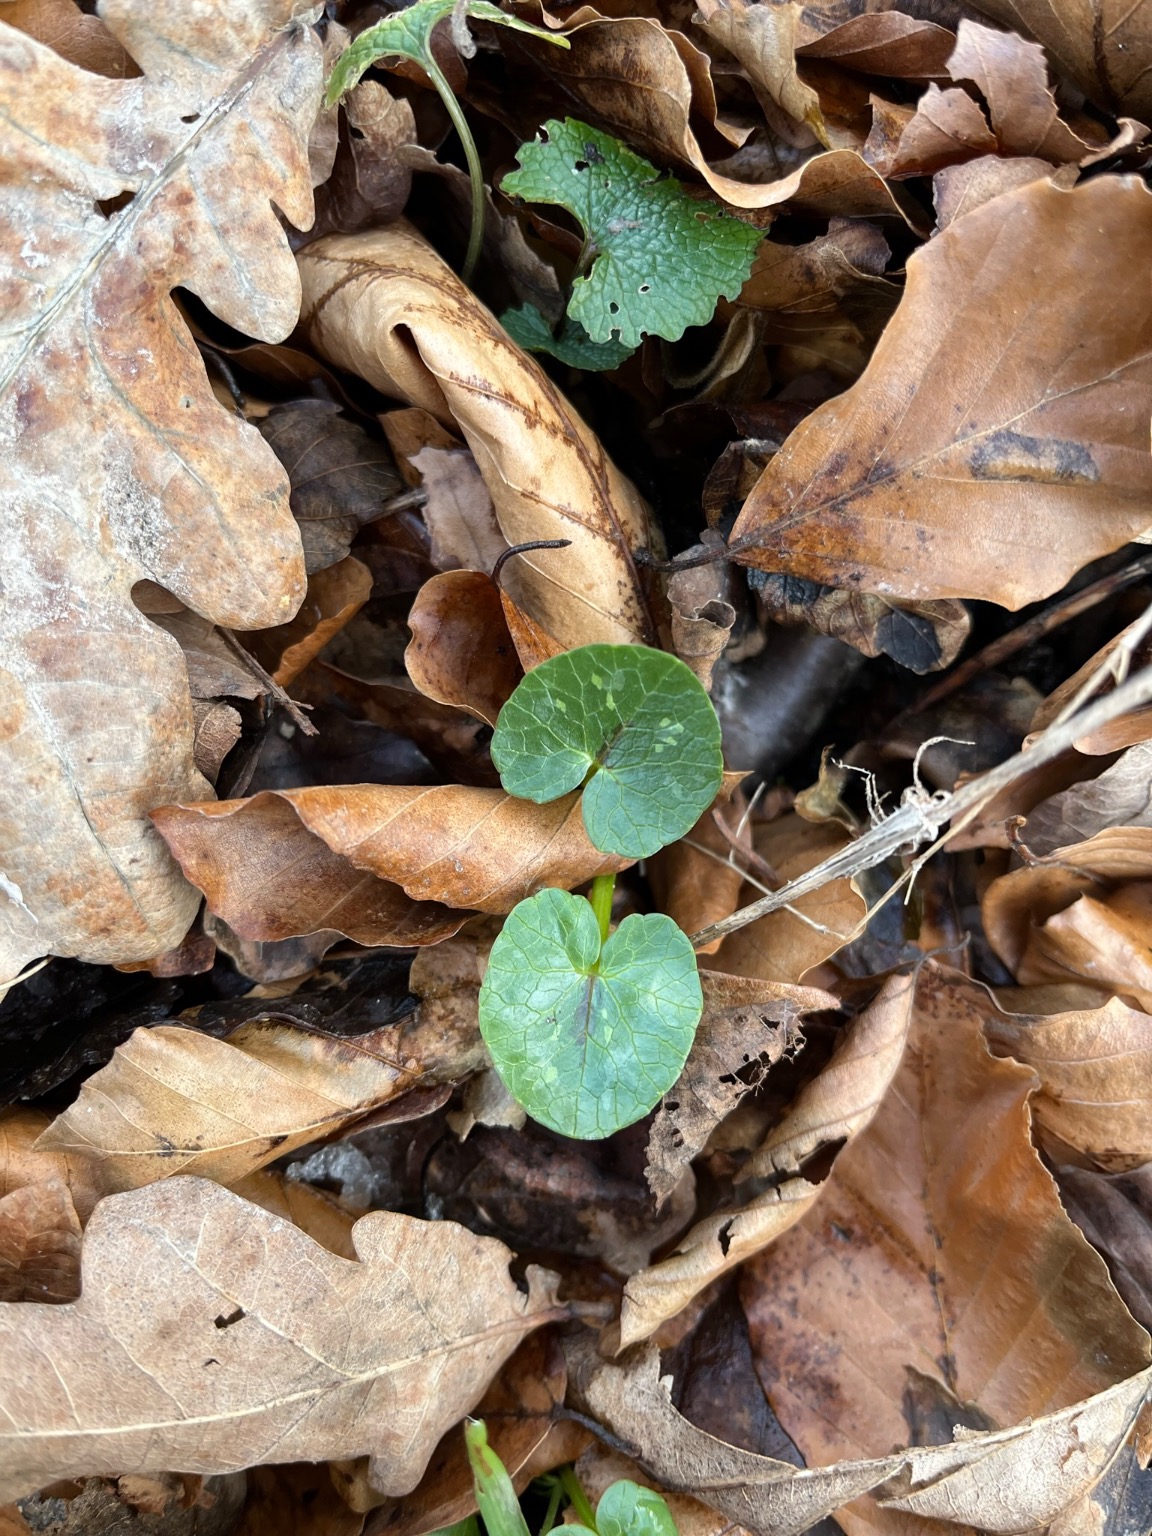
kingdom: Plantae
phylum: Tracheophyta
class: Magnoliopsida
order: Ranunculales
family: Ranunculaceae
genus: Ficaria
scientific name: Ficaria verna
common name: Vorterod
